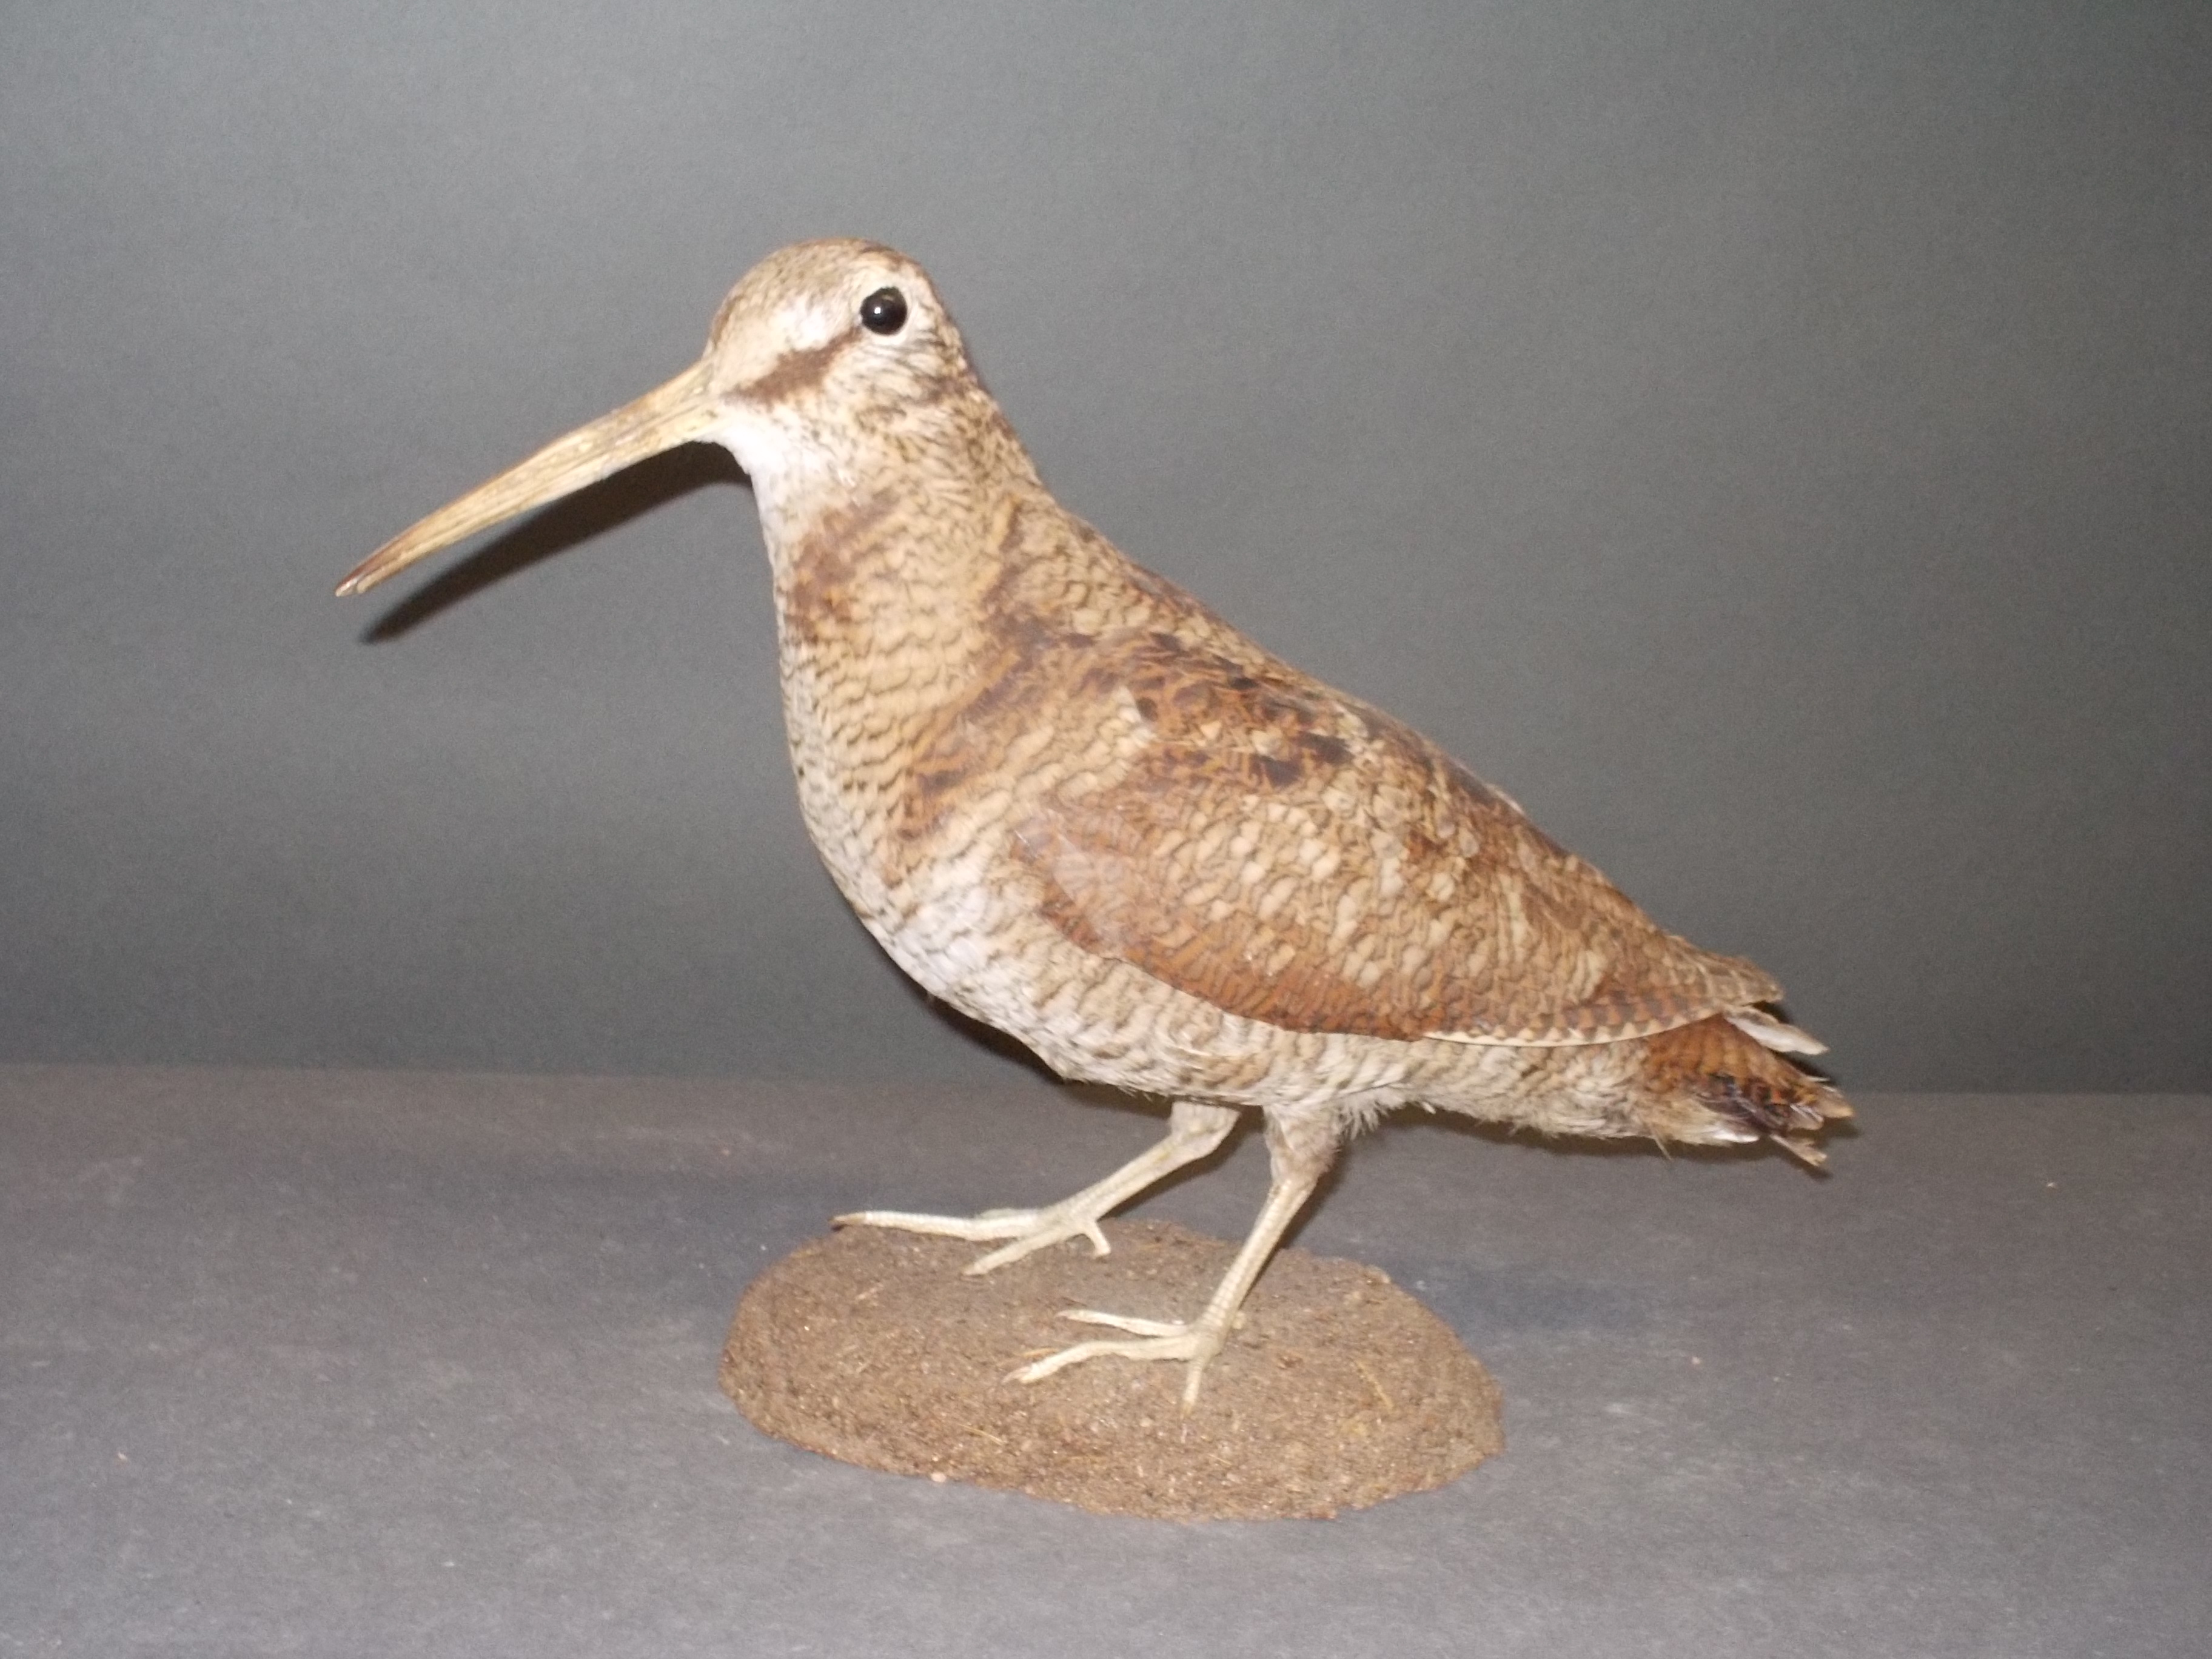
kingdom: Animalia
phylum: Chordata
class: Aves
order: Charadriiformes
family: Scolopacidae
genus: Scolopax
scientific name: Scolopax rusticola
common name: Eurasian woodcock
